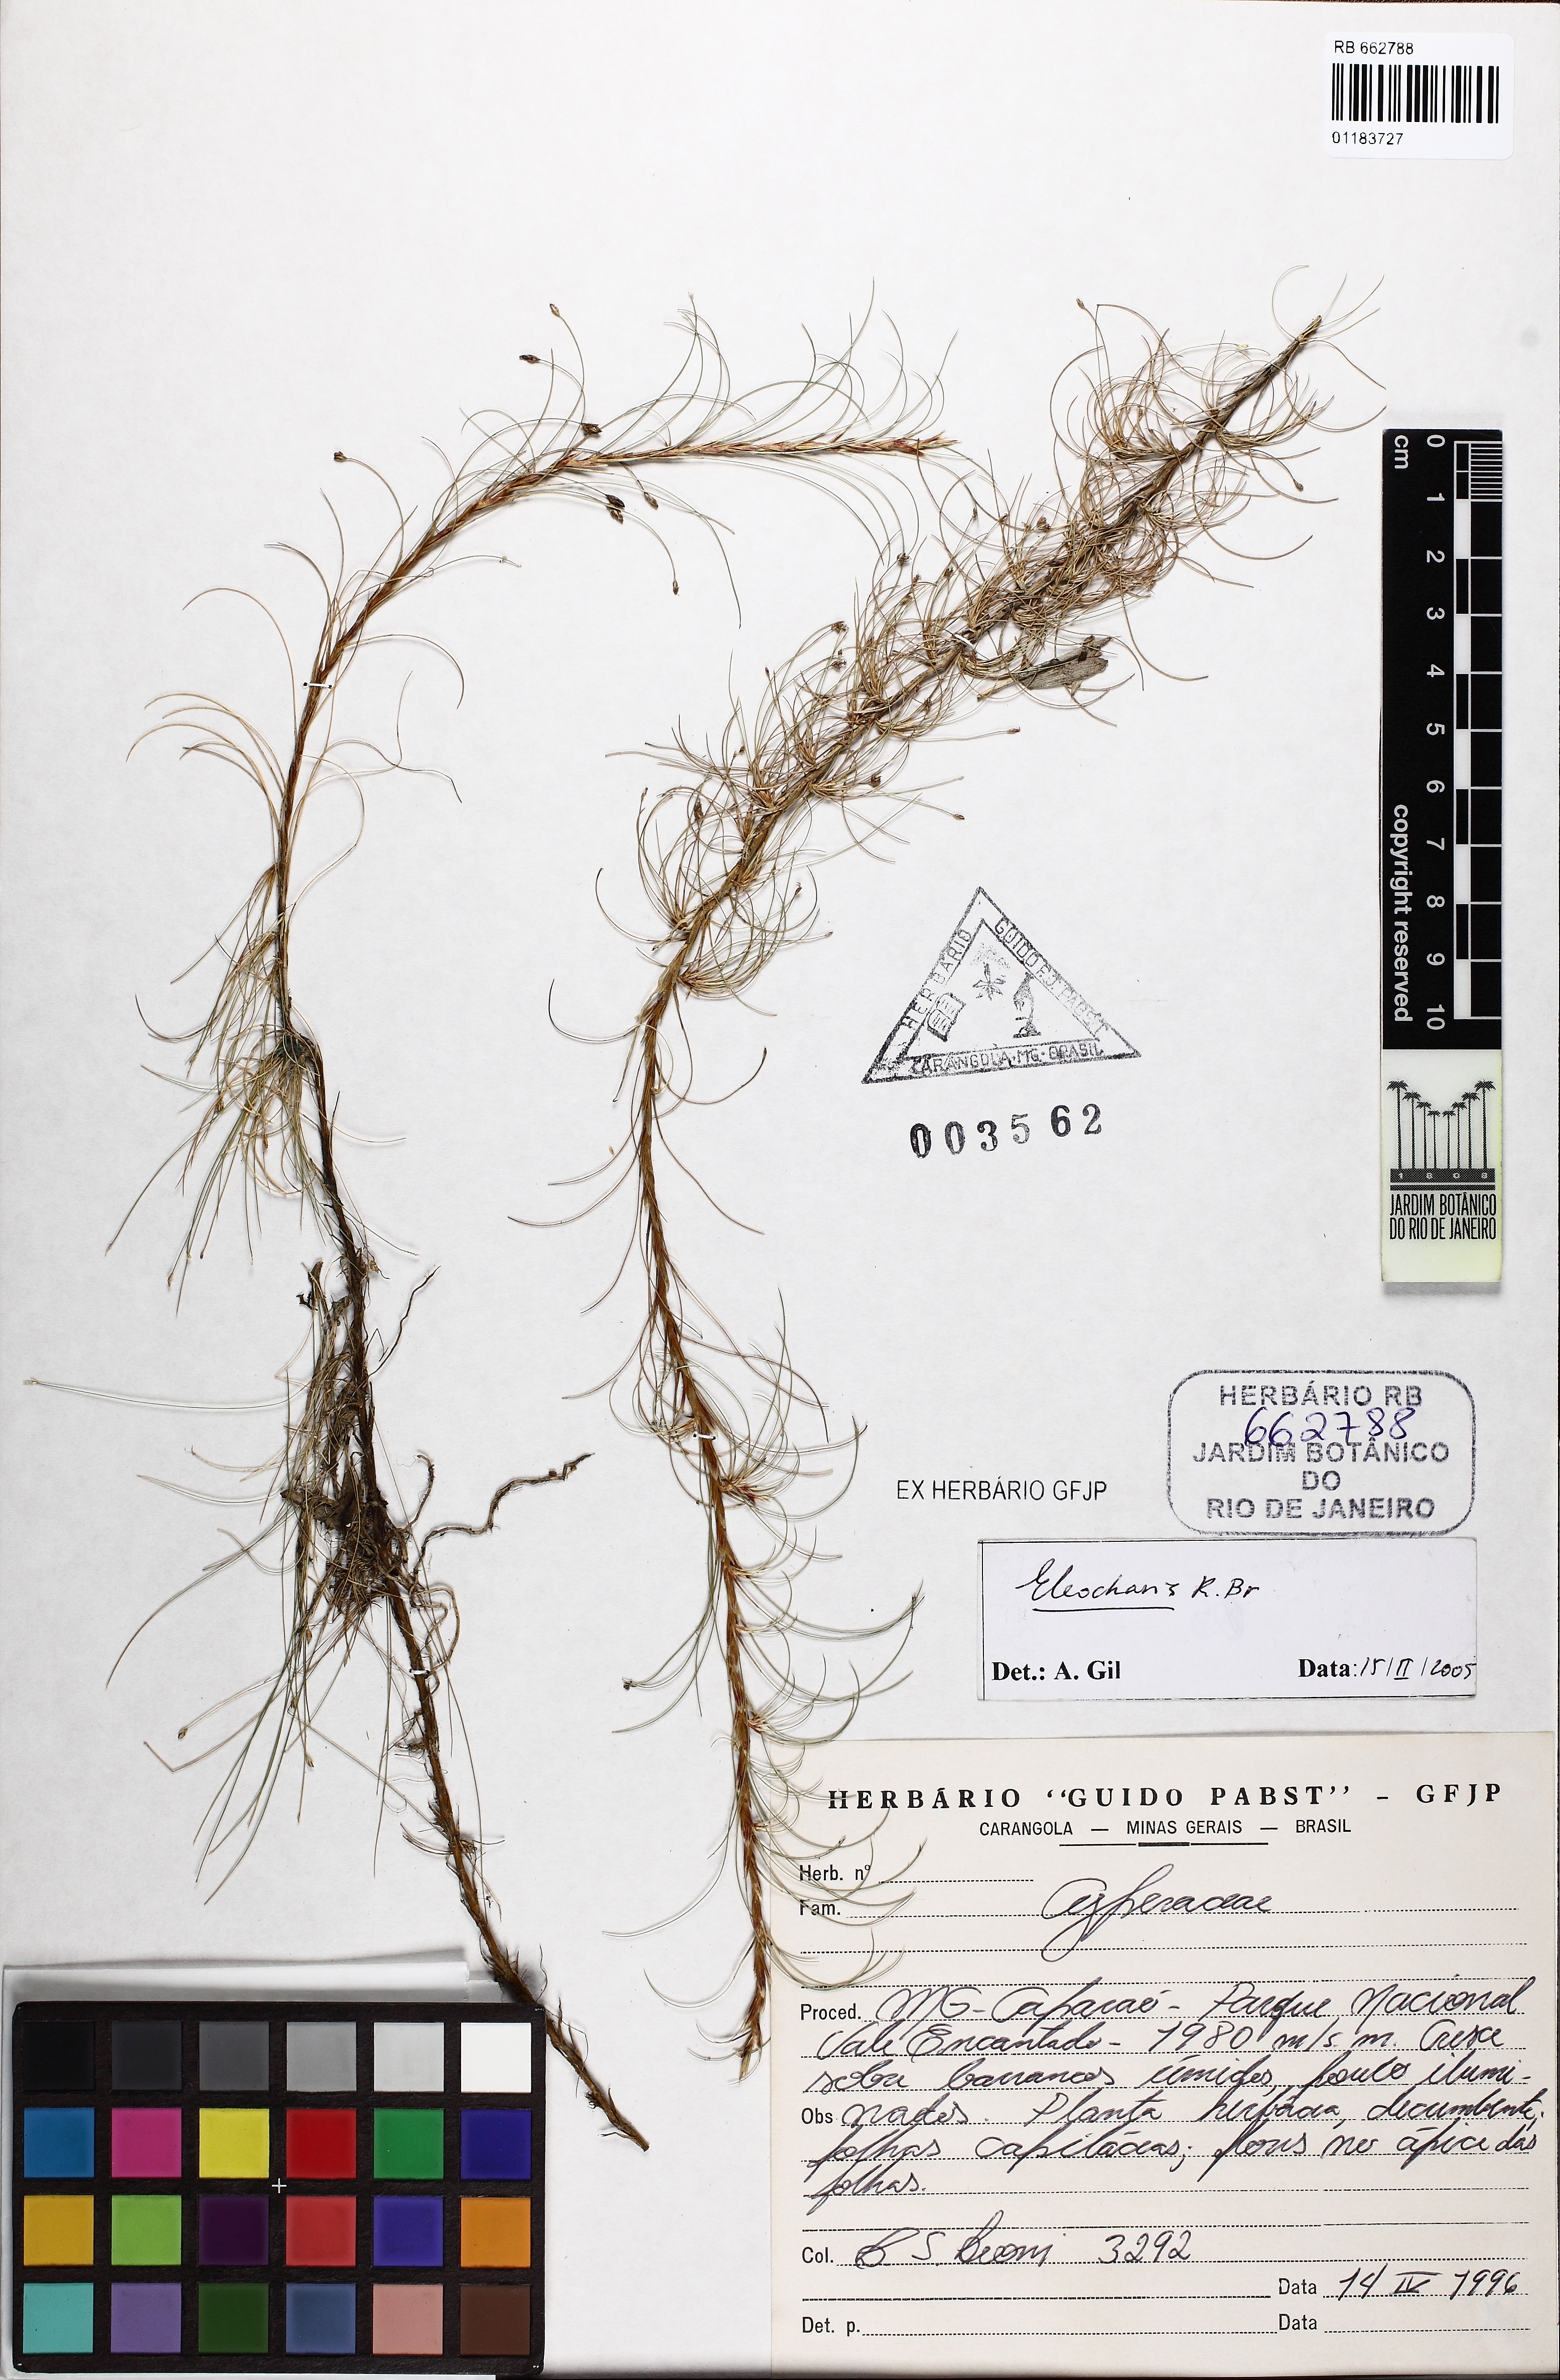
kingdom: Plantae
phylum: Tracheophyta
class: Liliopsida
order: Poales
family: Cyperaceae
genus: Eleocharis
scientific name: Eleocharis
